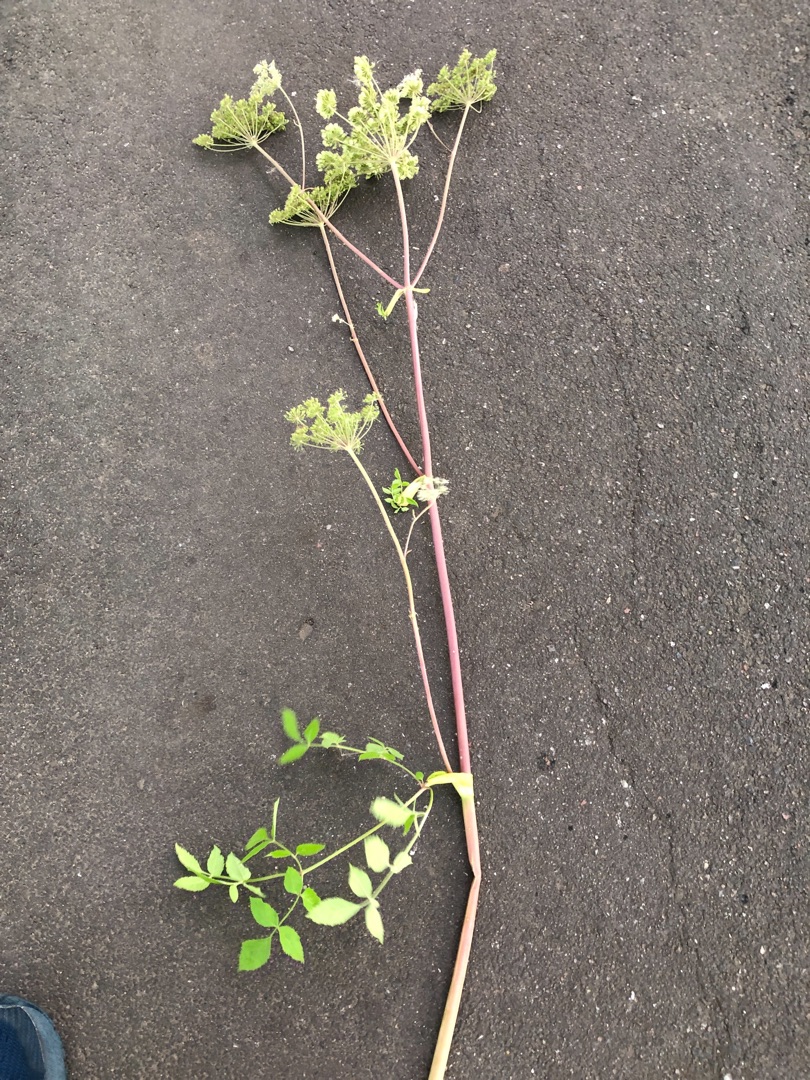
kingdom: Plantae
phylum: Tracheophyta
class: Magnoliopsida
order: Apiales
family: Apiaceae
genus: Angelica
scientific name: Angelica sylvestris
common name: Angelik
